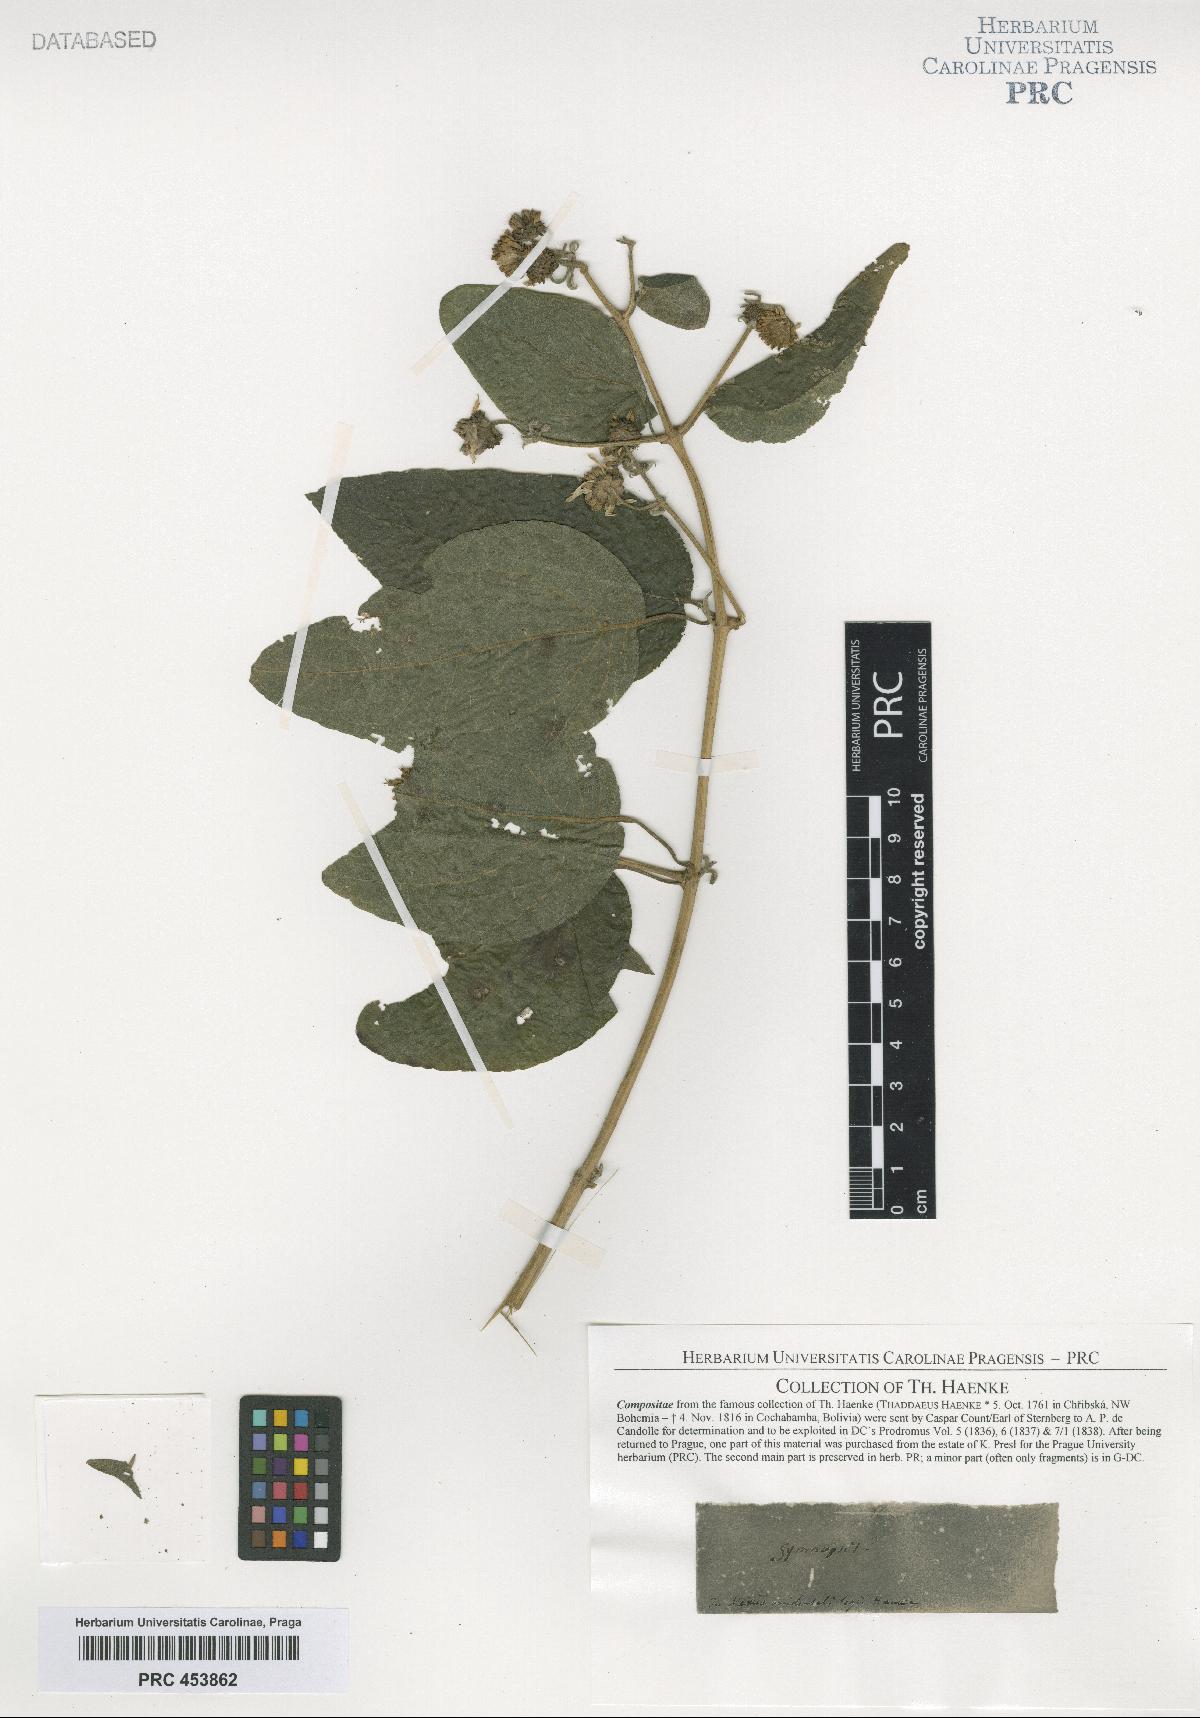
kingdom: Animalia
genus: Gymnopsis
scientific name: Gymnopsis
